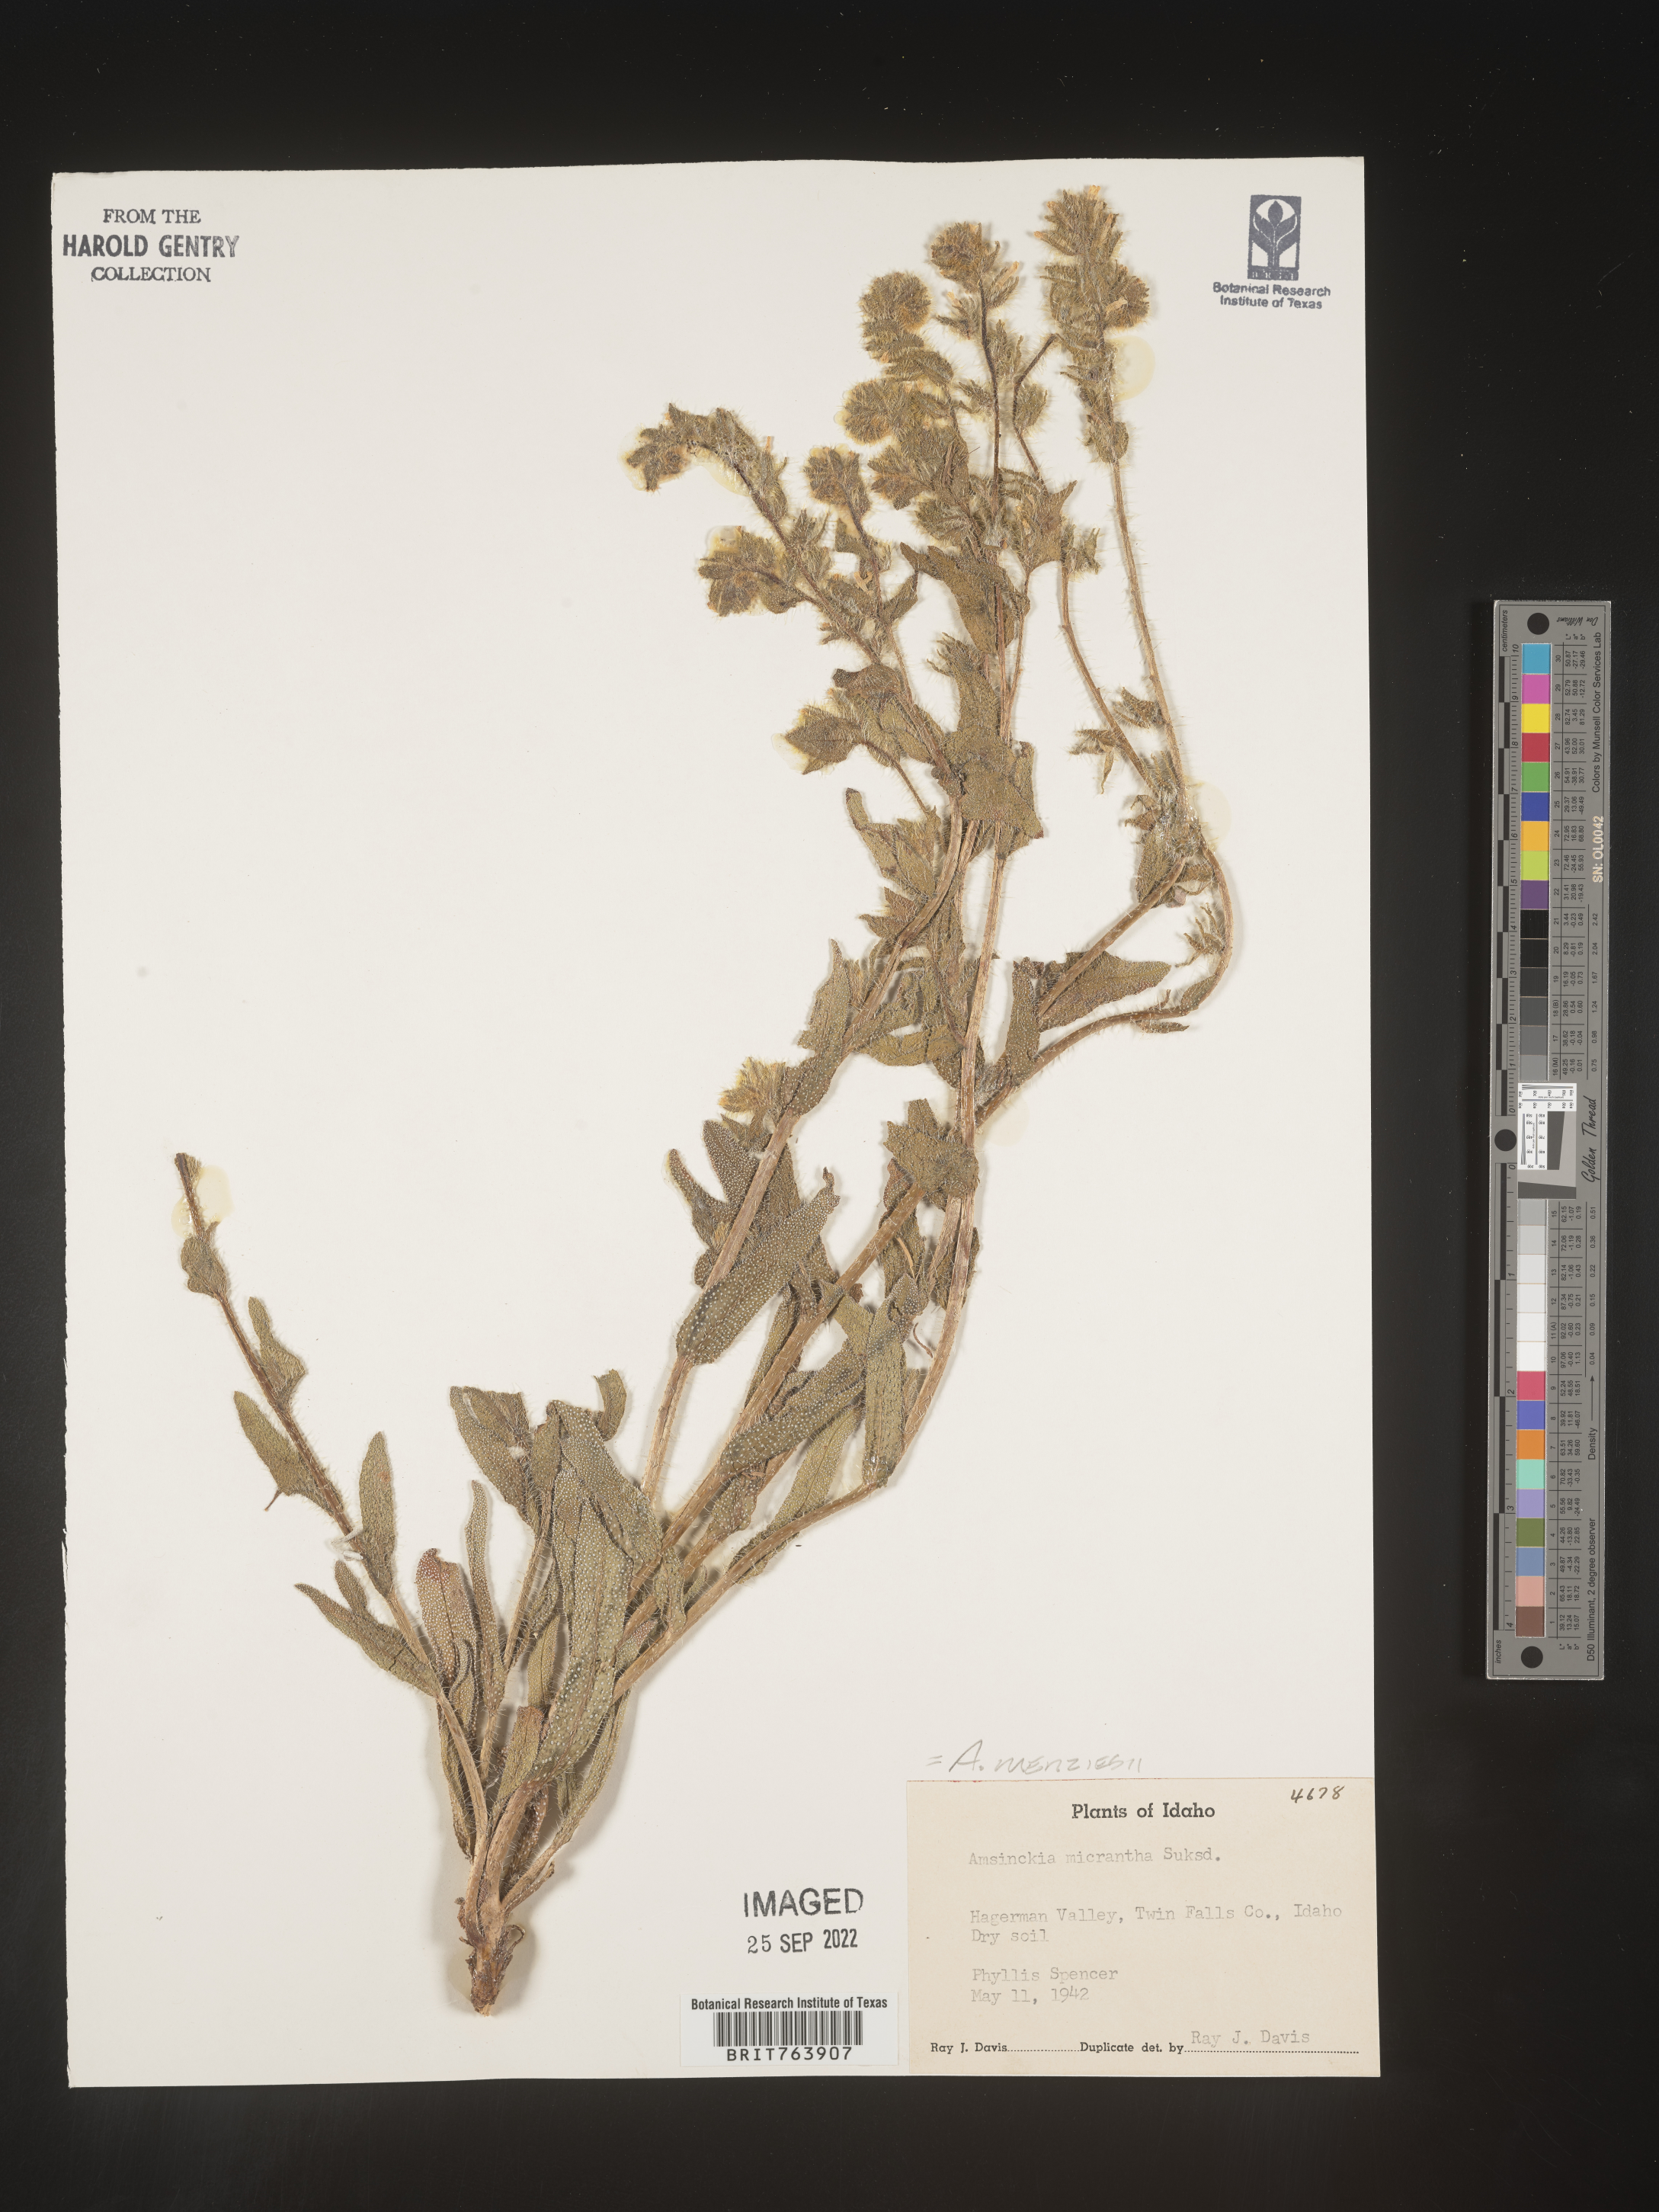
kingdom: Plantae
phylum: Tracheophyta
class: Magnoliopsida
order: Boraginales
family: Boraginaceae
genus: Amsinckia
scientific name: Amsinckia menziesii
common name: Menzies' fiddleneck
